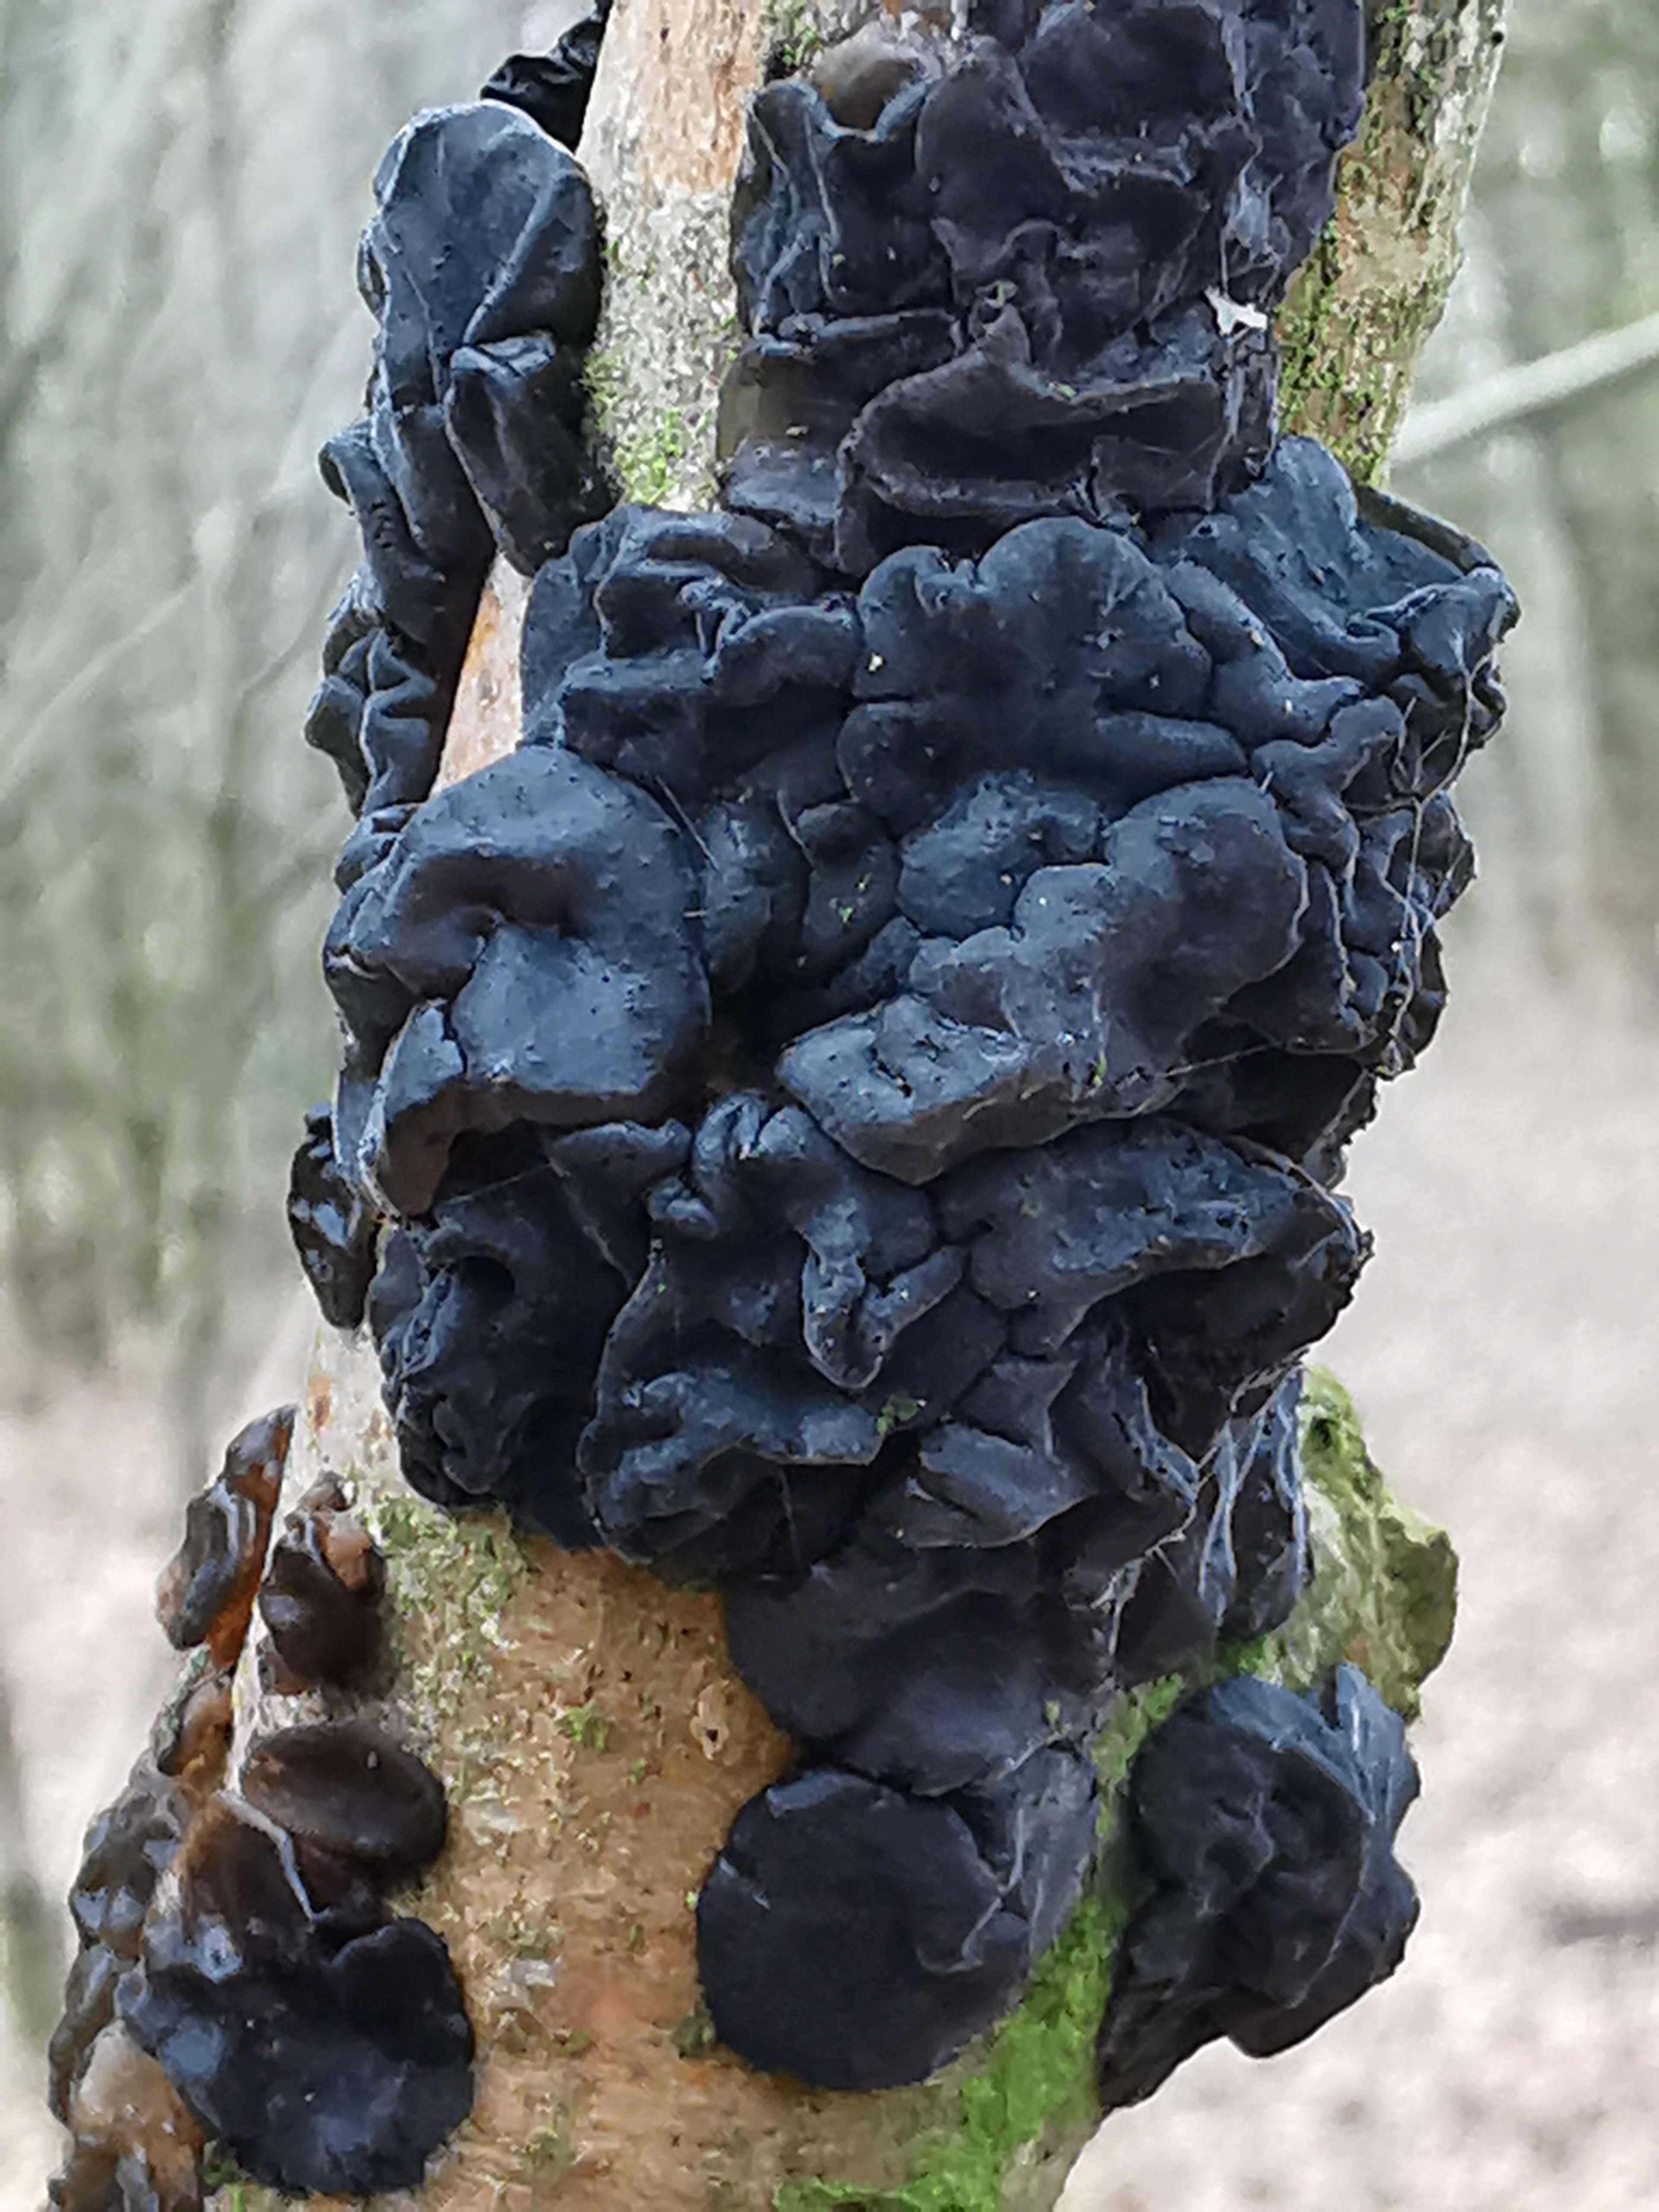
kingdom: Fungi
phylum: Basidiomycota
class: Agaricomycetes
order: Auriculariales
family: Auriculariaceae
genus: Exidia
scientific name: Exidia nigricans
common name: almindelig bævretop
